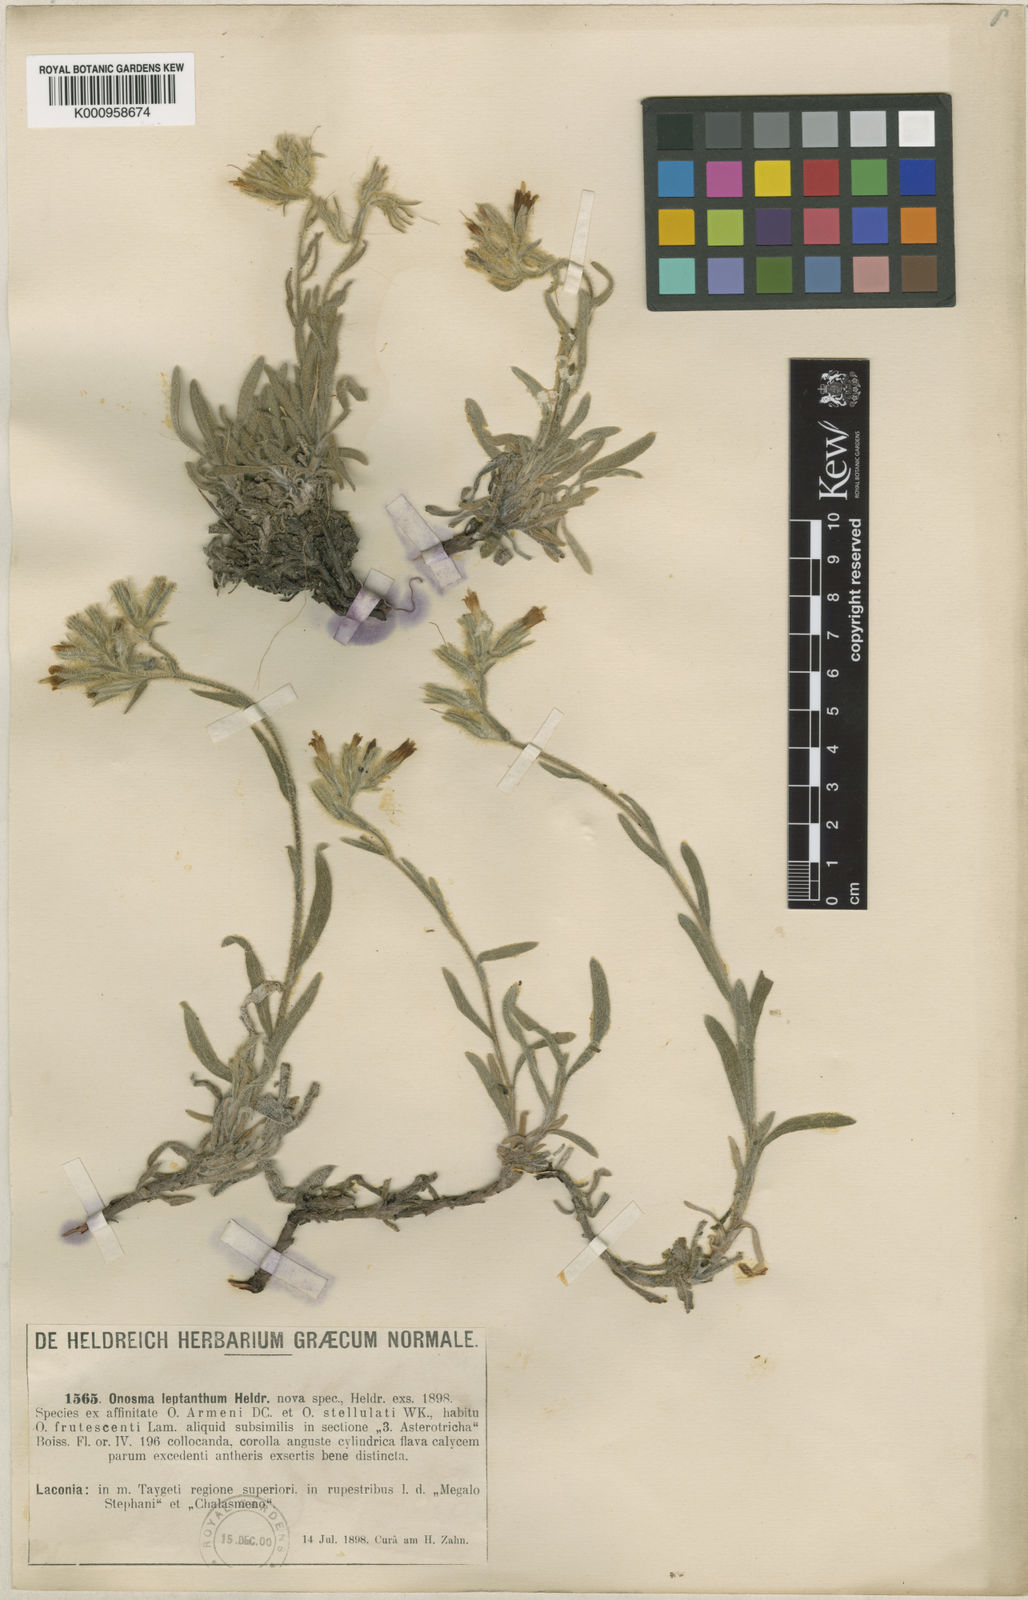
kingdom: Plantae
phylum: Tracheophyta
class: Magnoliopsida
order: Boraginales
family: Boraginaceae
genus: Onosma
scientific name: Onosma
